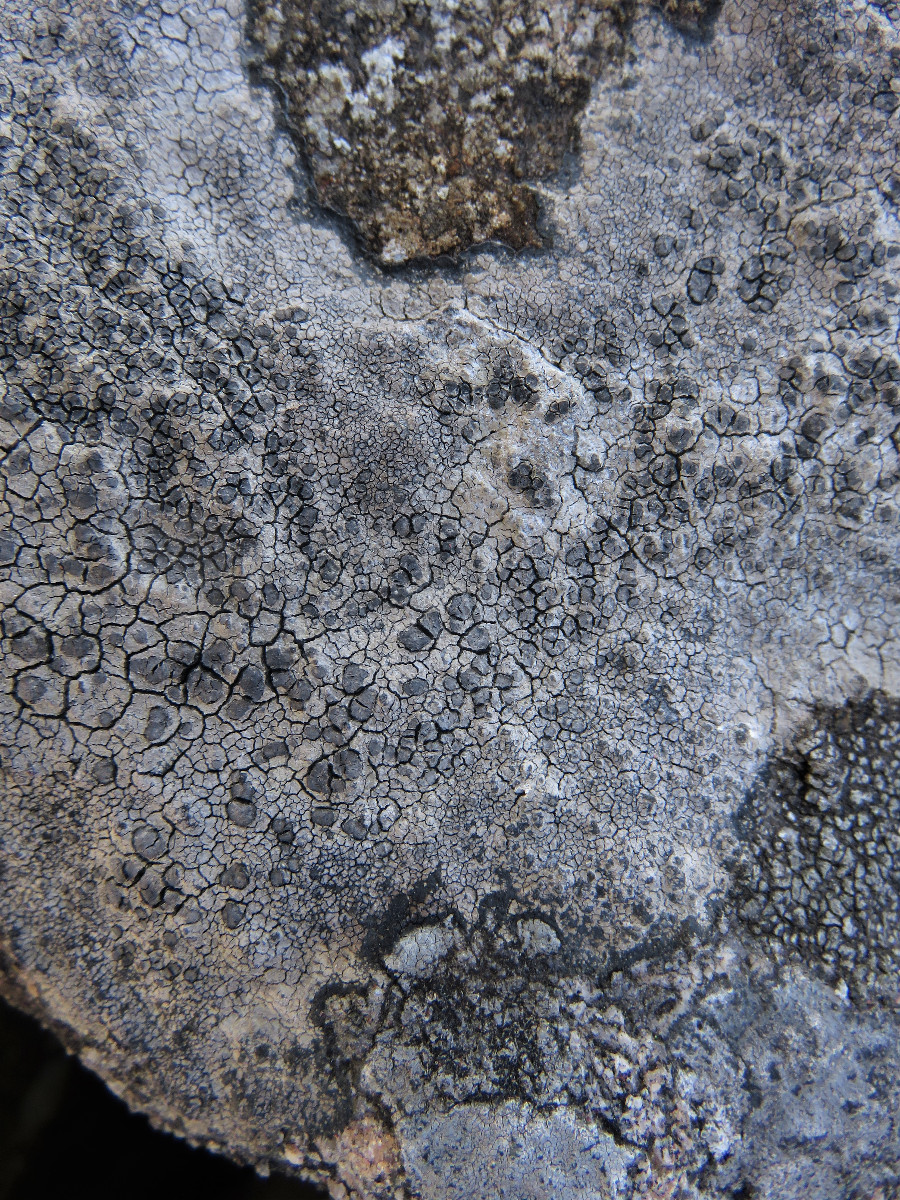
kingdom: Fungi
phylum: Ascomycota
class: Lecanoromycetes
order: Lecideales
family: Lecideaceae
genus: Lecidea
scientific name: Lecidea fuscoatra
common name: rudret skivelav
